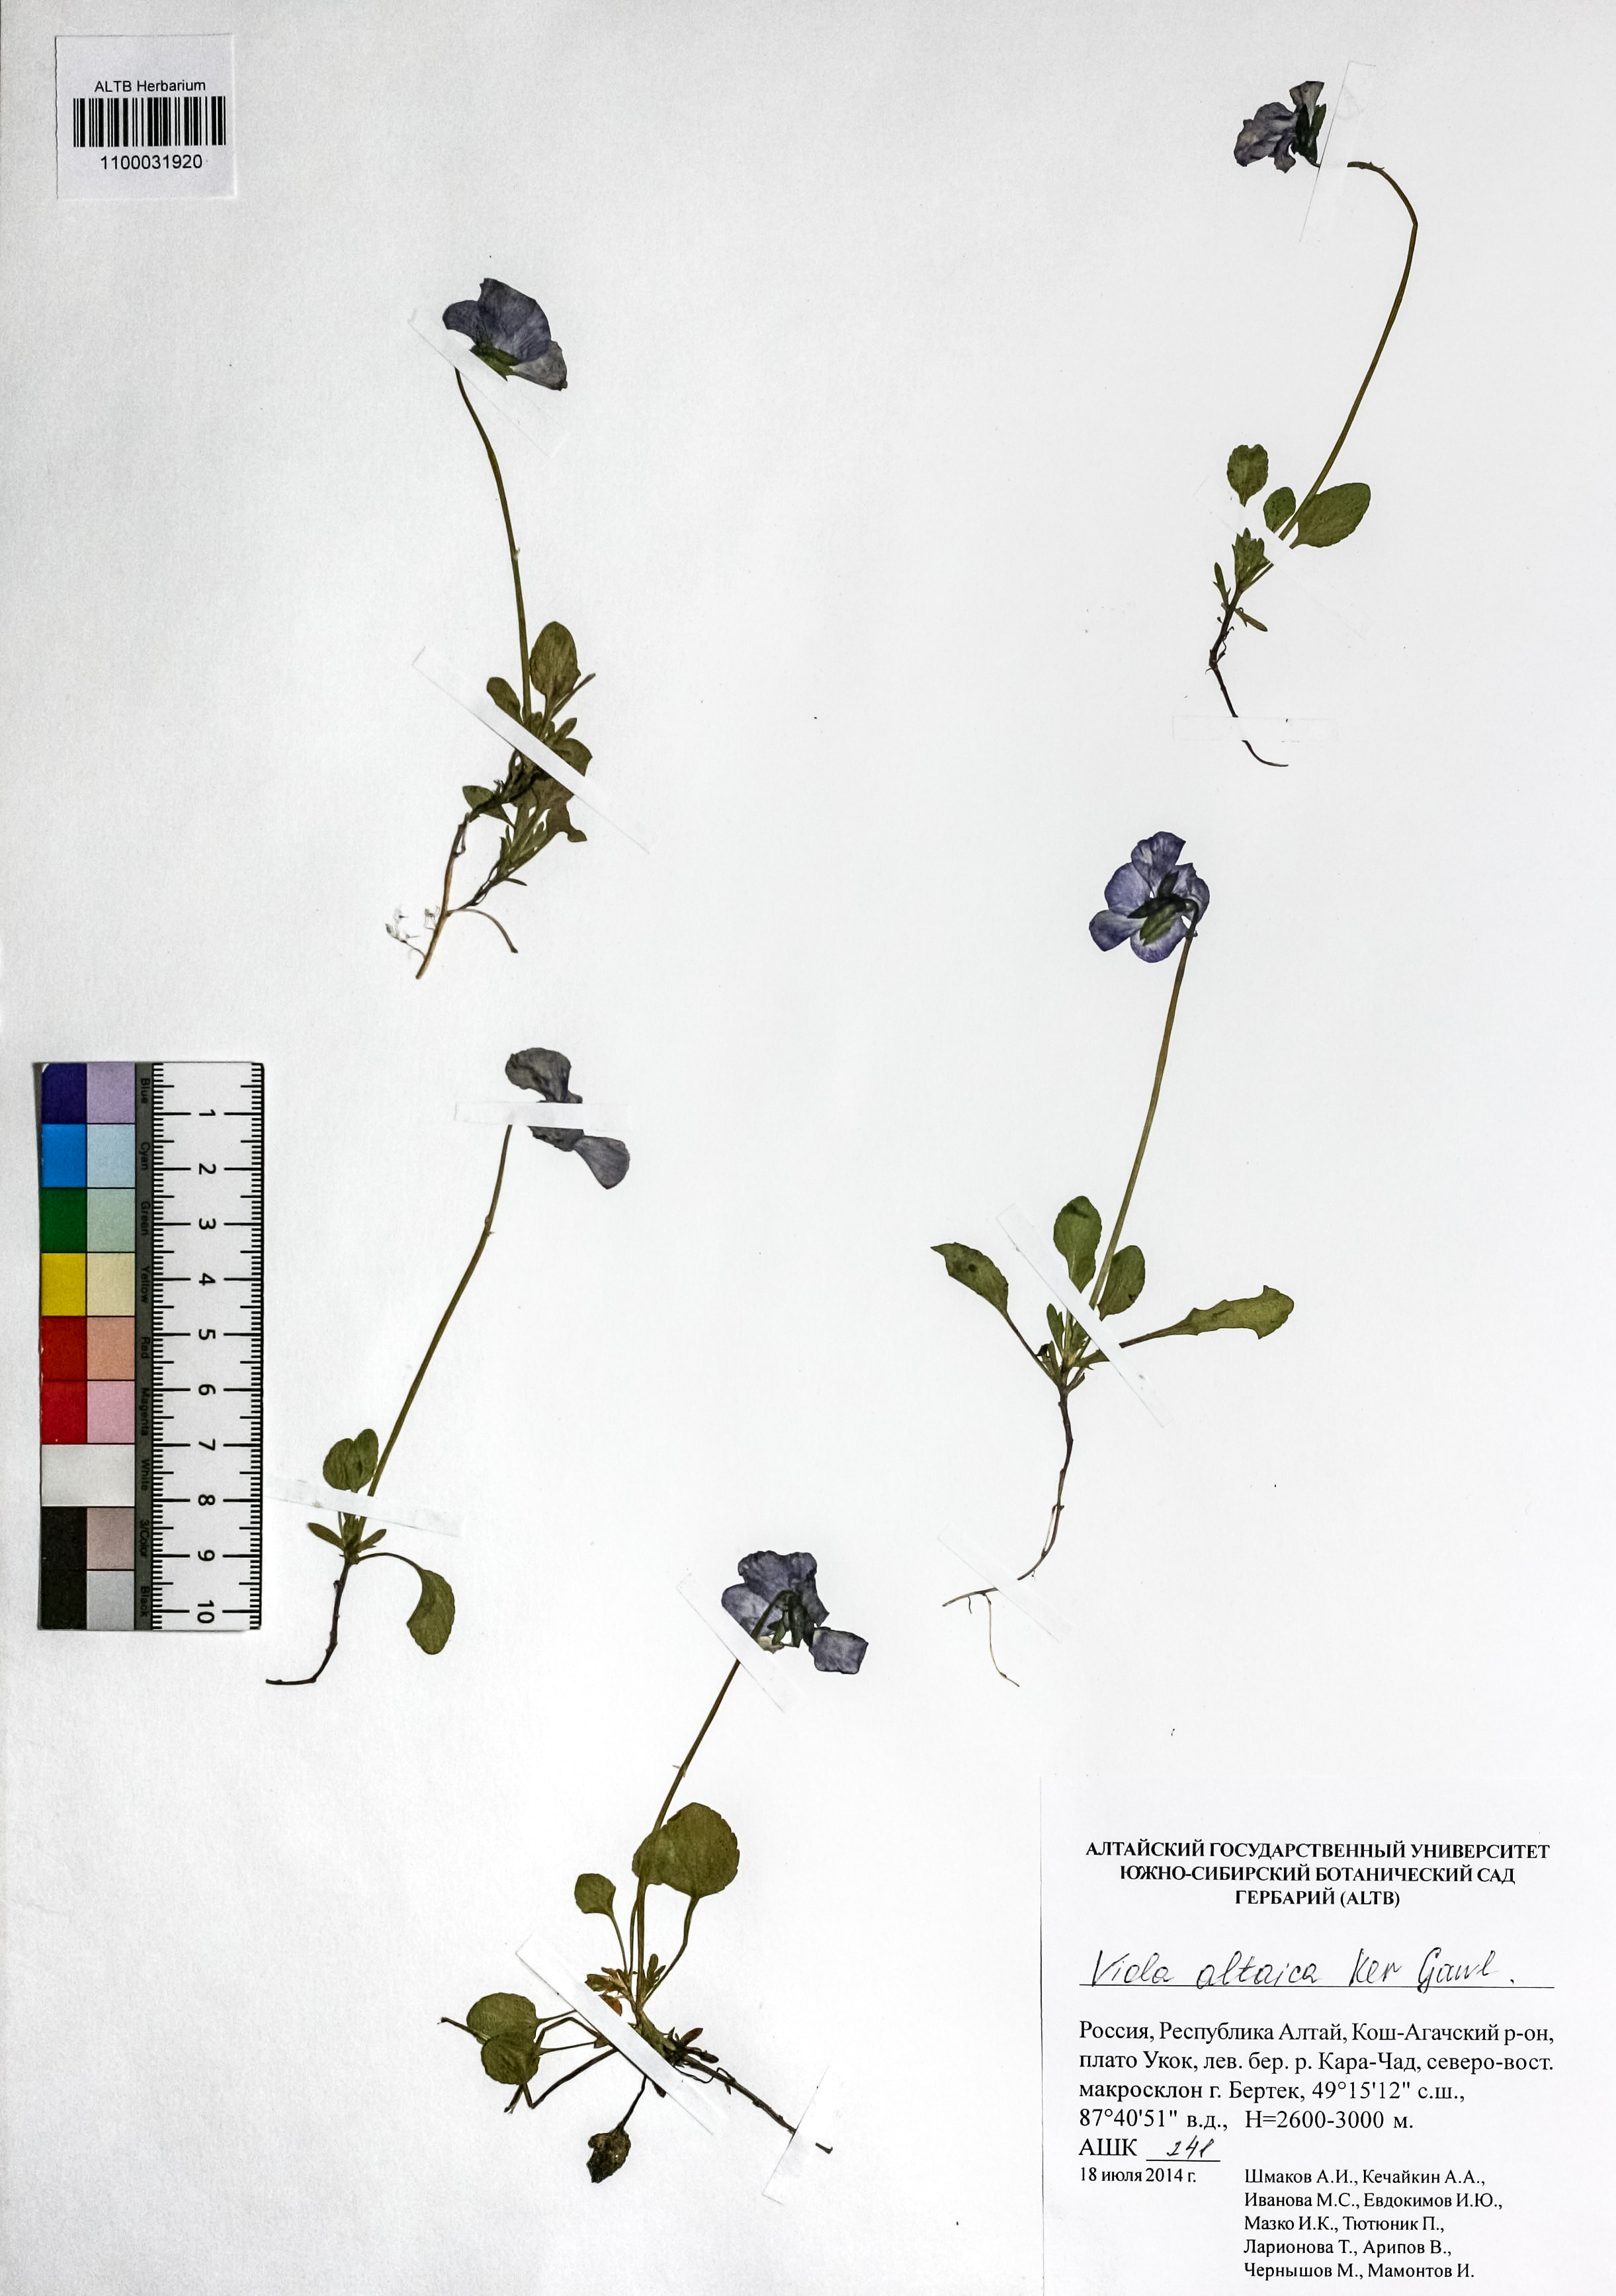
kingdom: Plantae
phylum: Tracheophyta
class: Magnoliopsida
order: Malpighiales
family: Violaceae
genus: Viola
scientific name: Viola altaica
